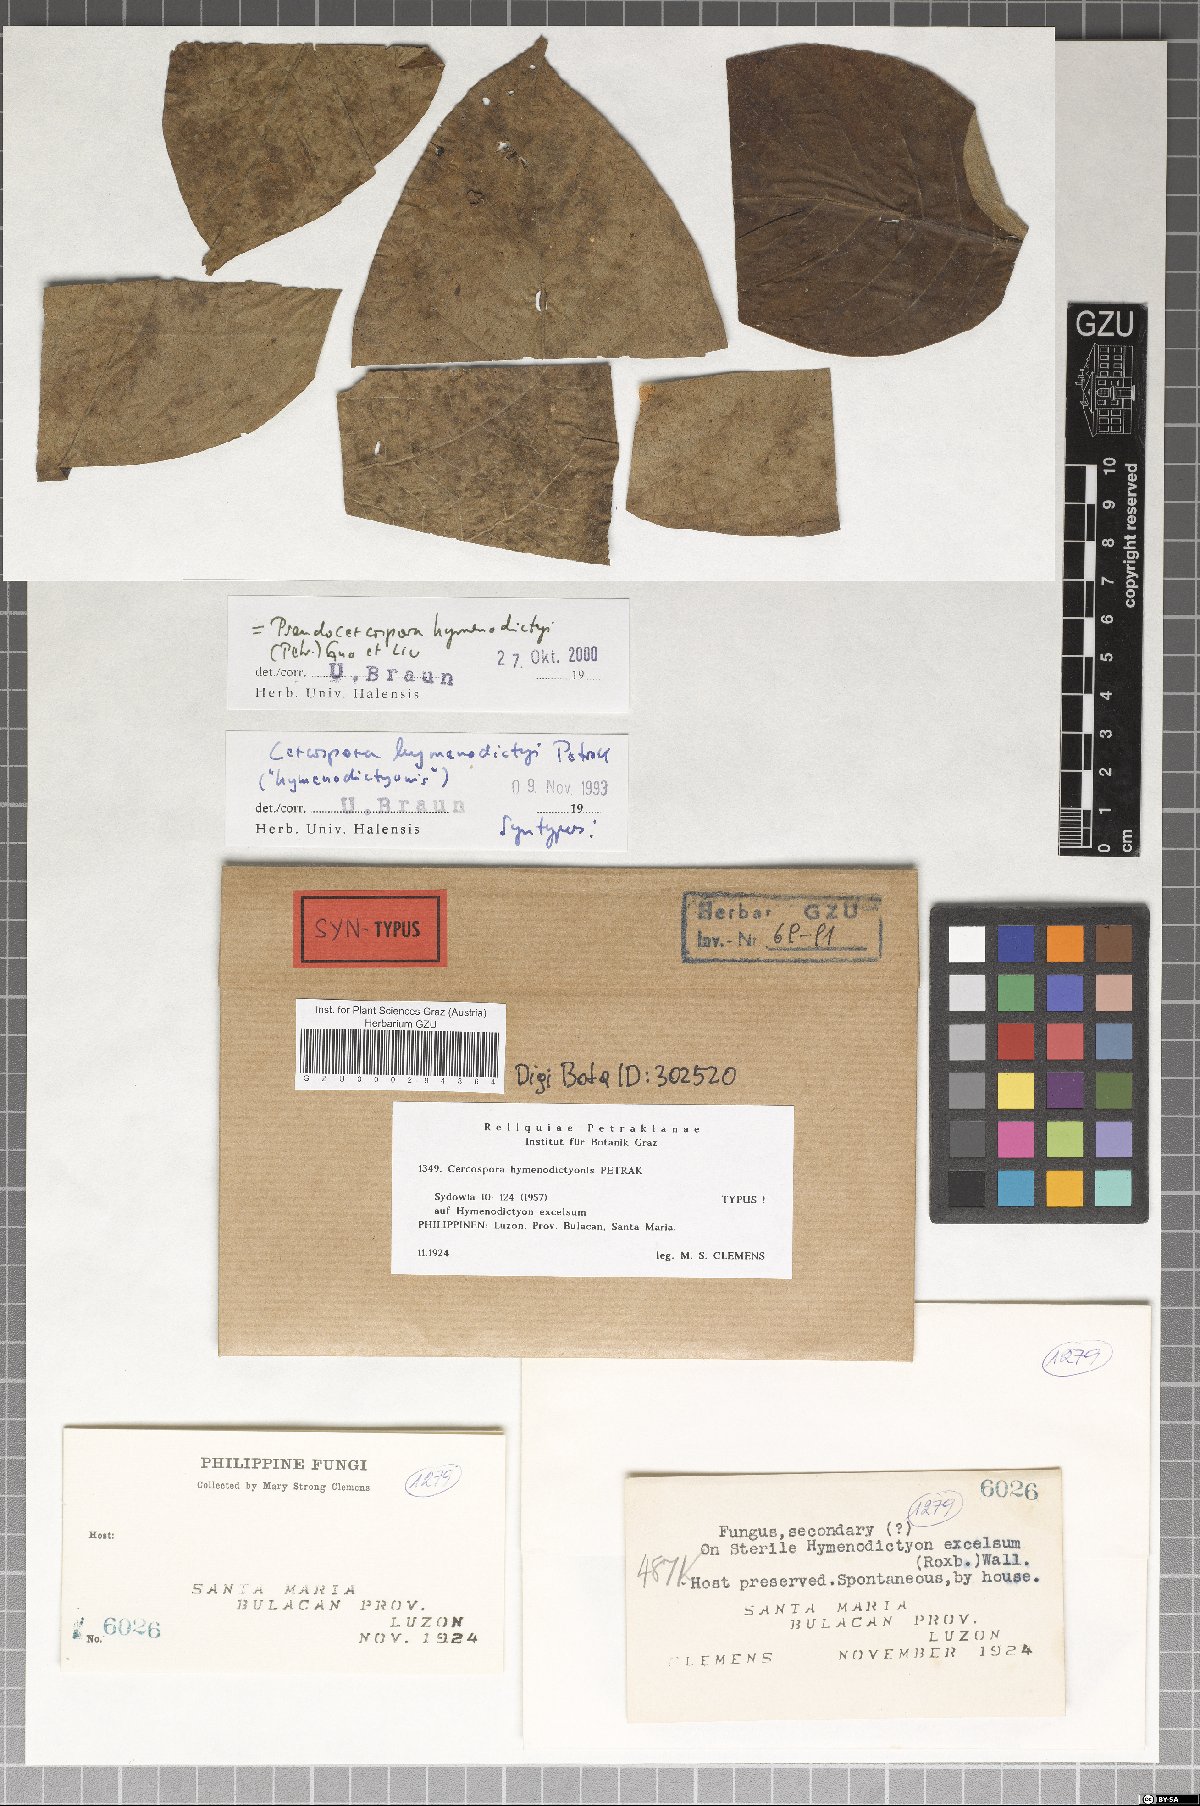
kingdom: Fungi
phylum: Ascomycota
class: Dothideomycetes
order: Mycosphaerellales
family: Mycosphaerellaceae
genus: Mycovellosiella
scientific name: Mycovellosiella hymenodictyi
